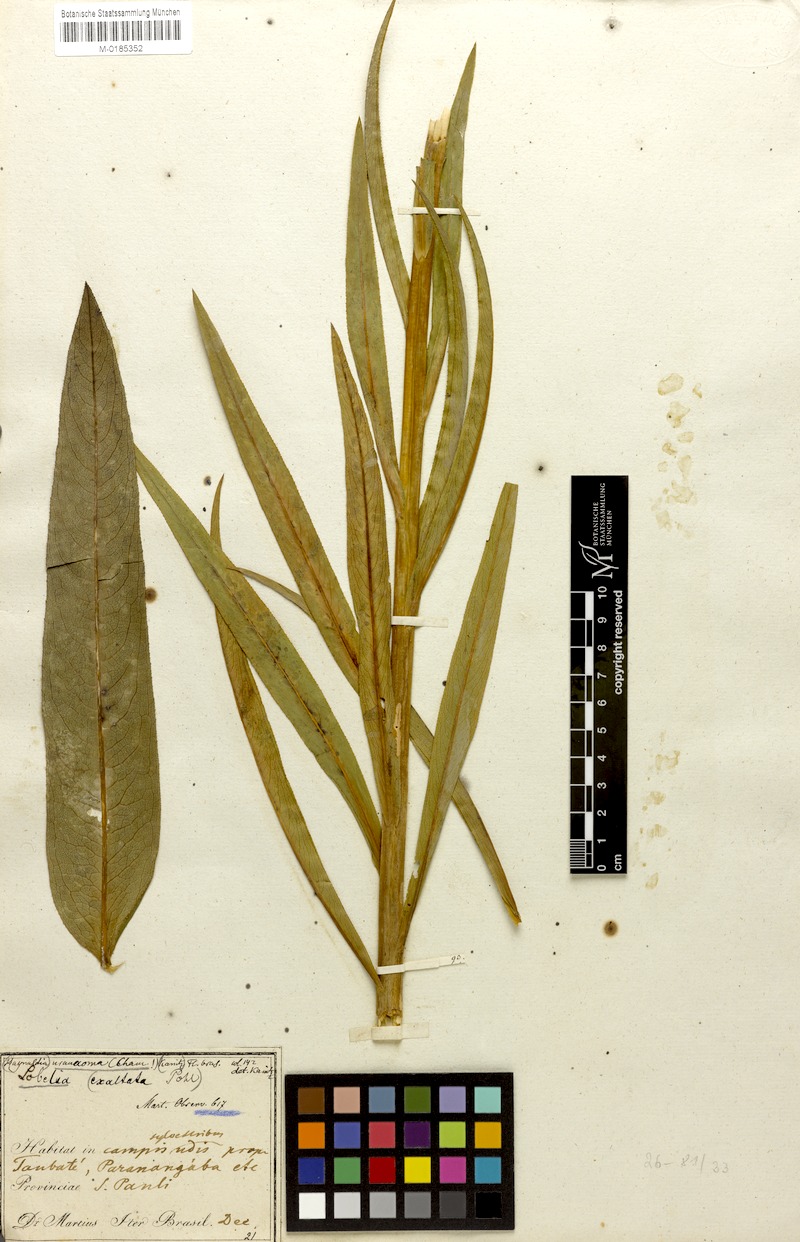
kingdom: Plantae
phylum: Tracheophyta
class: Magnoliopsida
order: Asterales
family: Campanulaceae
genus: Lobelia
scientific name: Lobelia fistulosa
